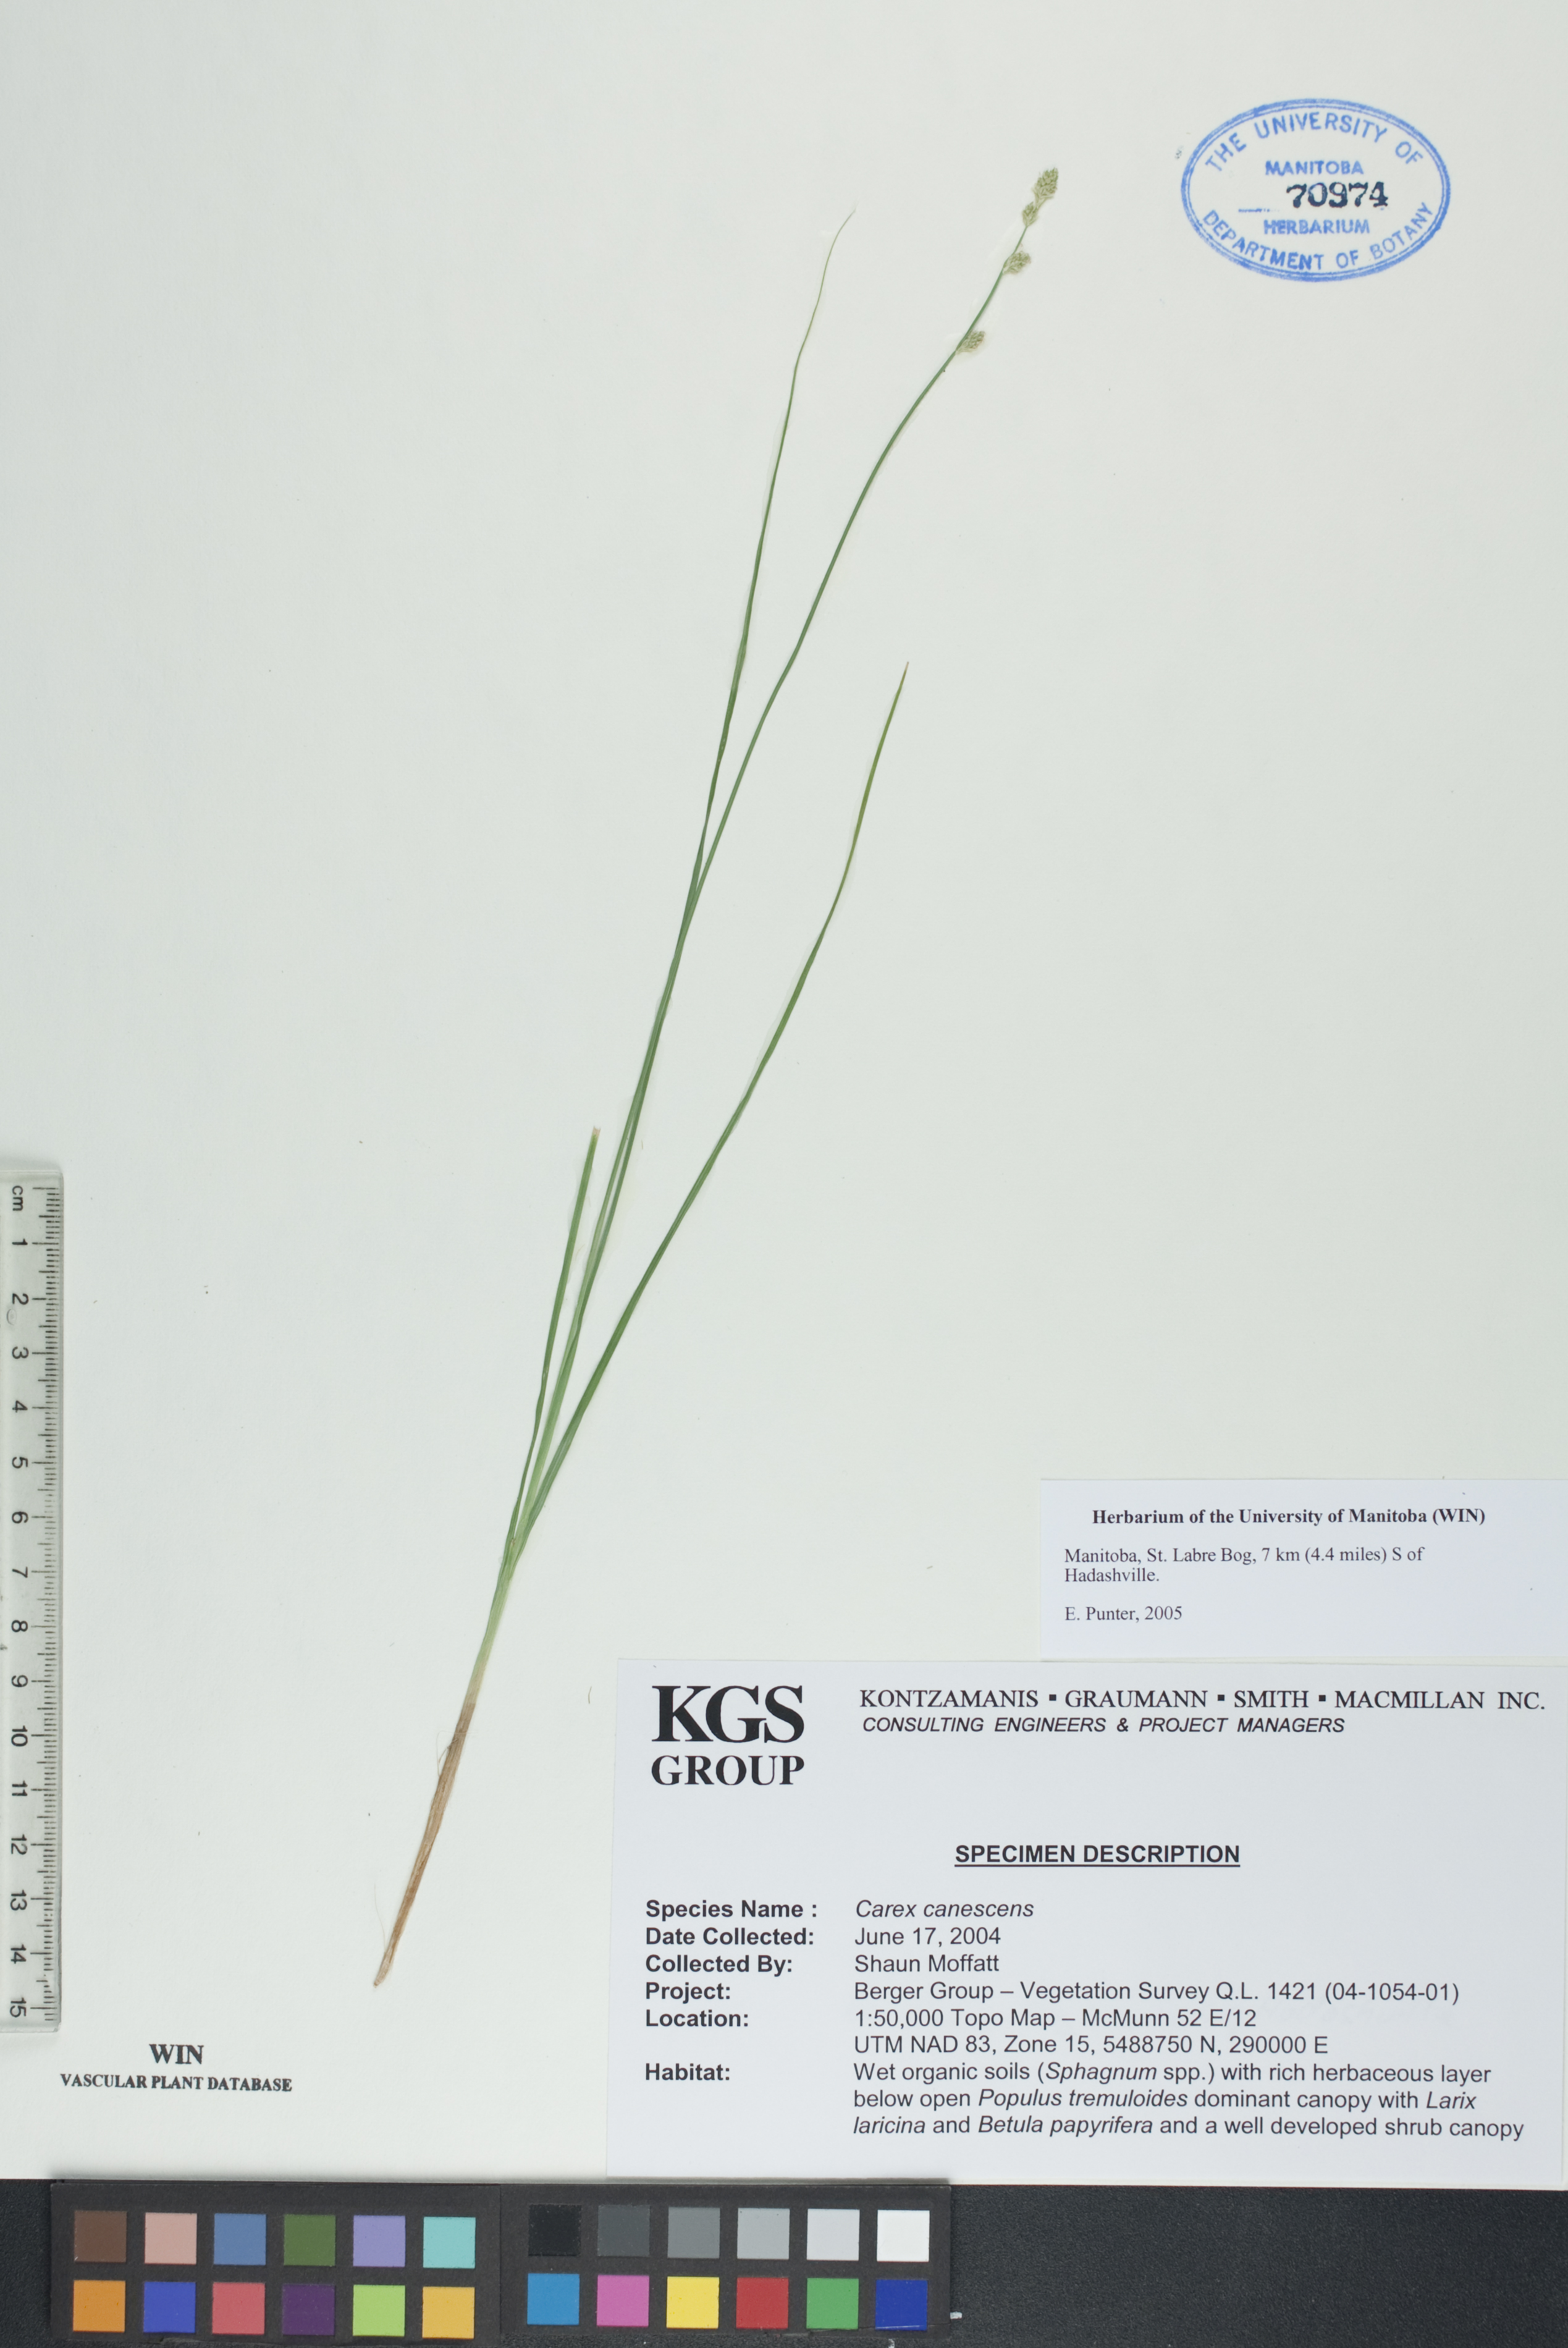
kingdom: Plantae
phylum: Tracheophyta
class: Liliopsida
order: Poales
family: Cyperaceae
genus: Carex
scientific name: Carex canescens
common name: White sedge
